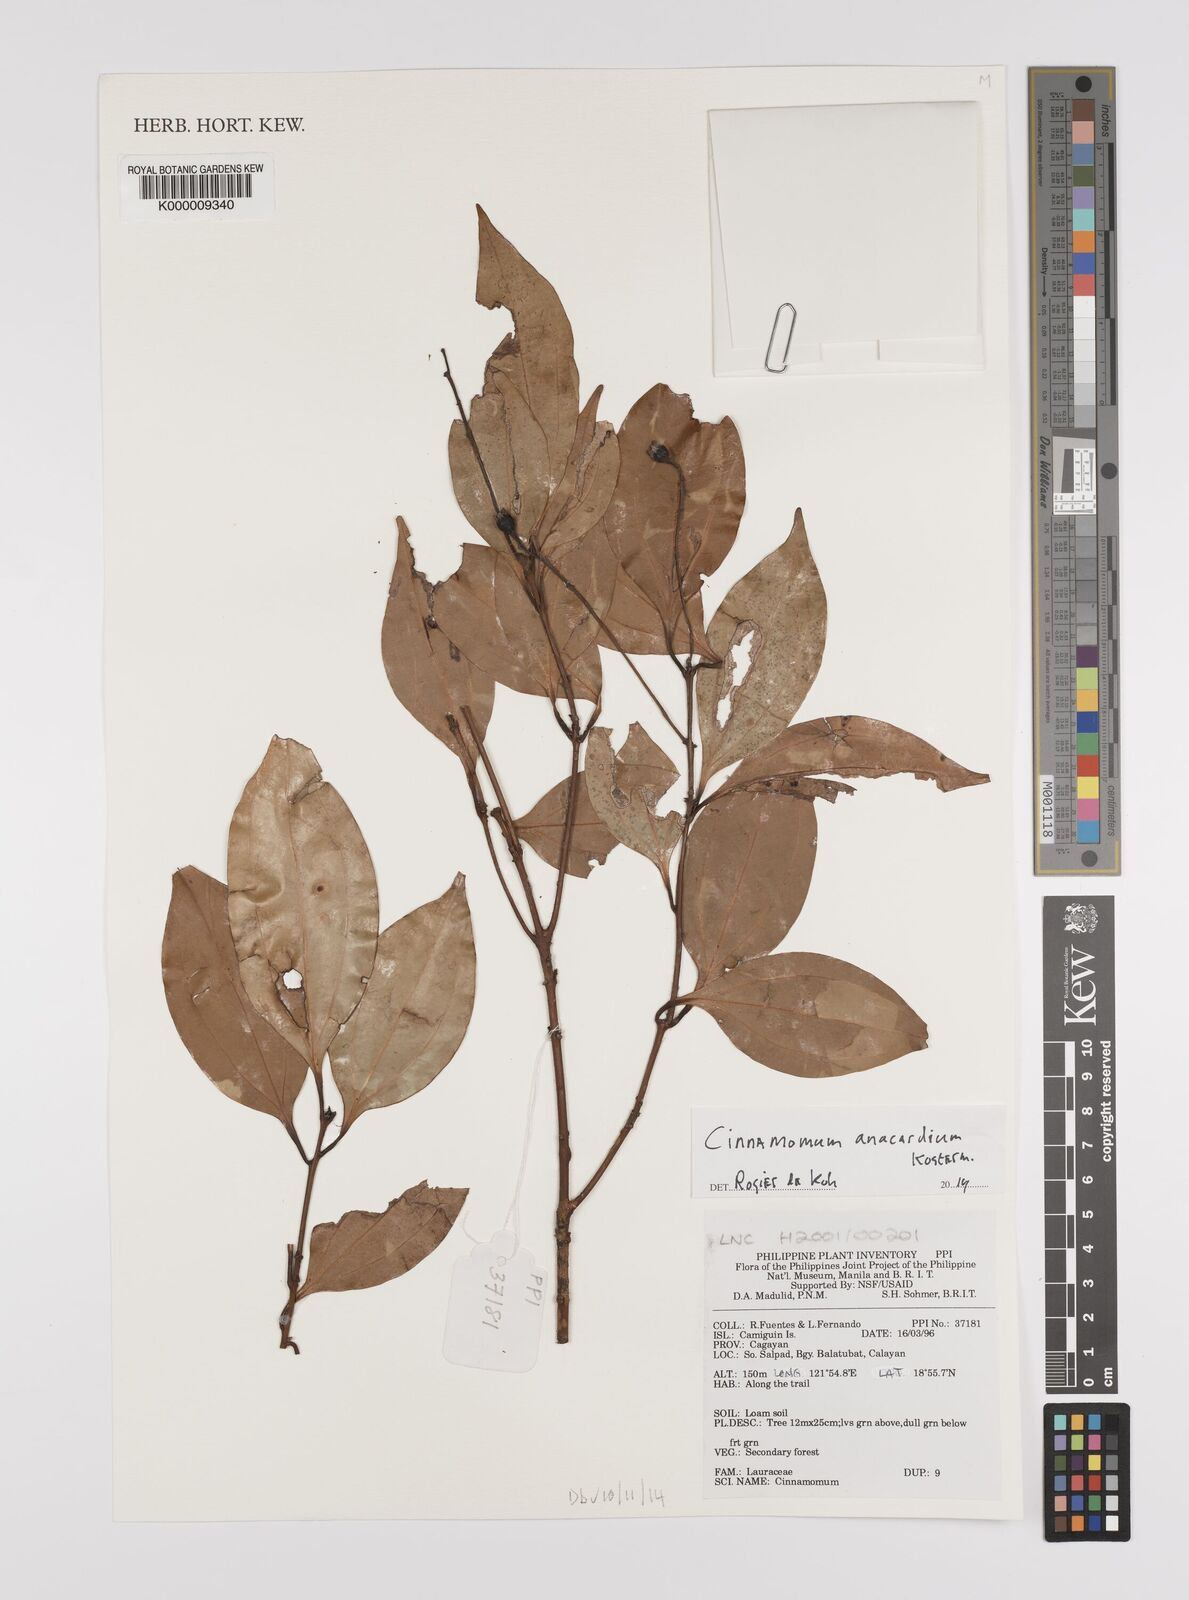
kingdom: Plantae
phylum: Tracheophyta
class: Magnoliopsida
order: Laurales
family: Lauraceae
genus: Cinnamomum
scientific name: Cinnamomum anacardium
